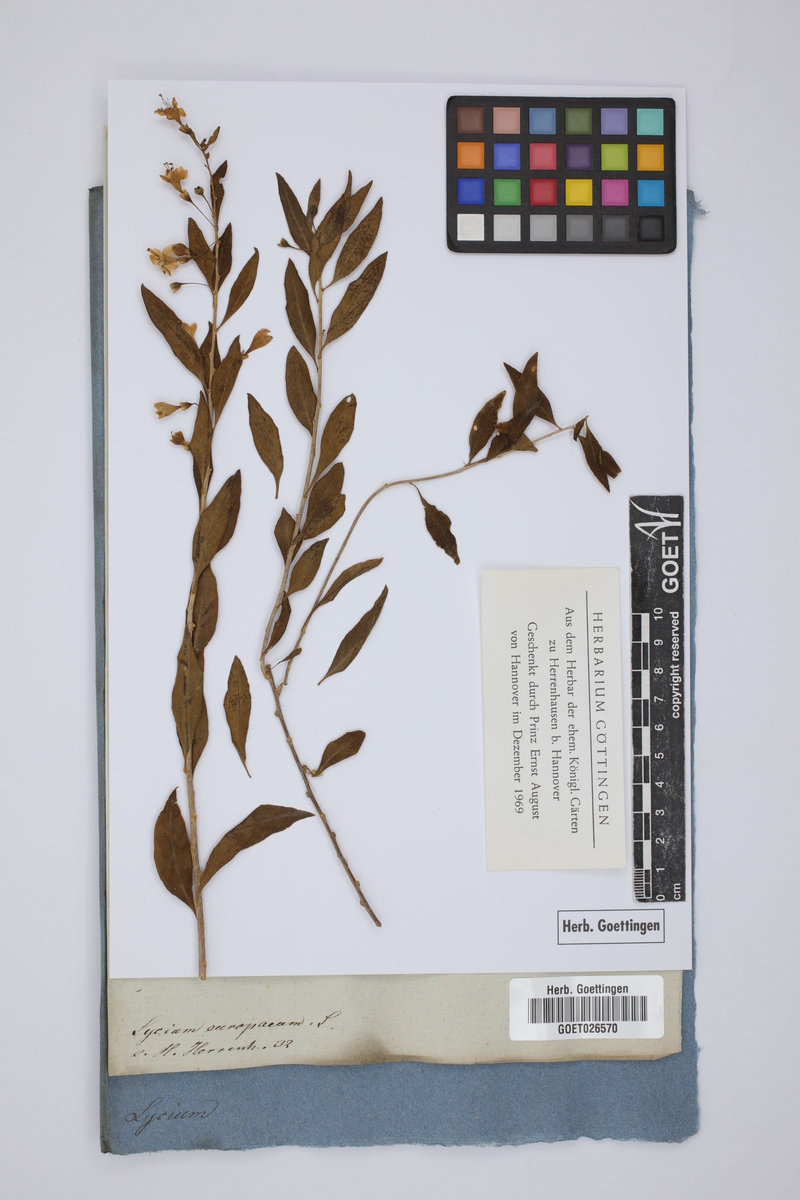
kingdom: Plantae
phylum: Tracheophyta
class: Magnoliopsida
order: Solanales
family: Solanaceae
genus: Lycium
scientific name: Lycium europaeum
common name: Boxthorn
